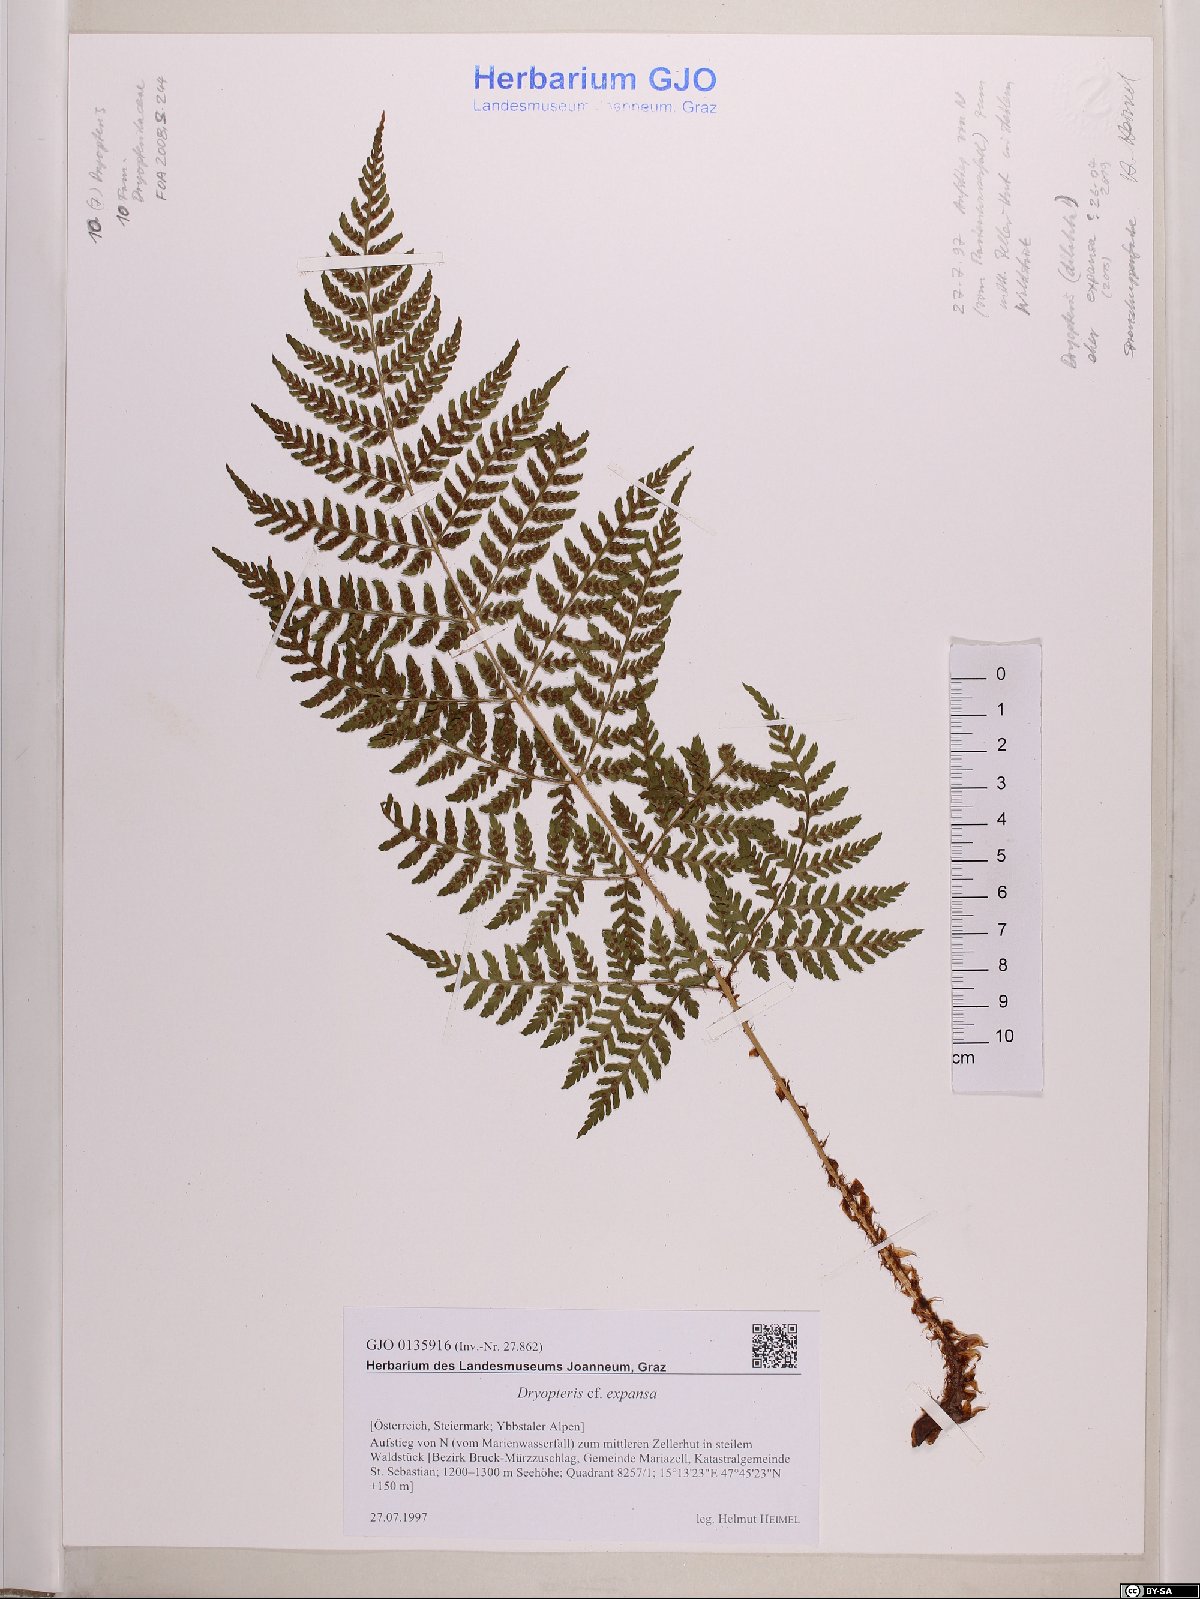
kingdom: Plantae
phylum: Tracheophyta
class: Polypodiopsida
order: Polypodiales
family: Dryopteridaceae
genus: Dryopteris
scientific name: Dryopteris expansa
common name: Northern buckler fern
